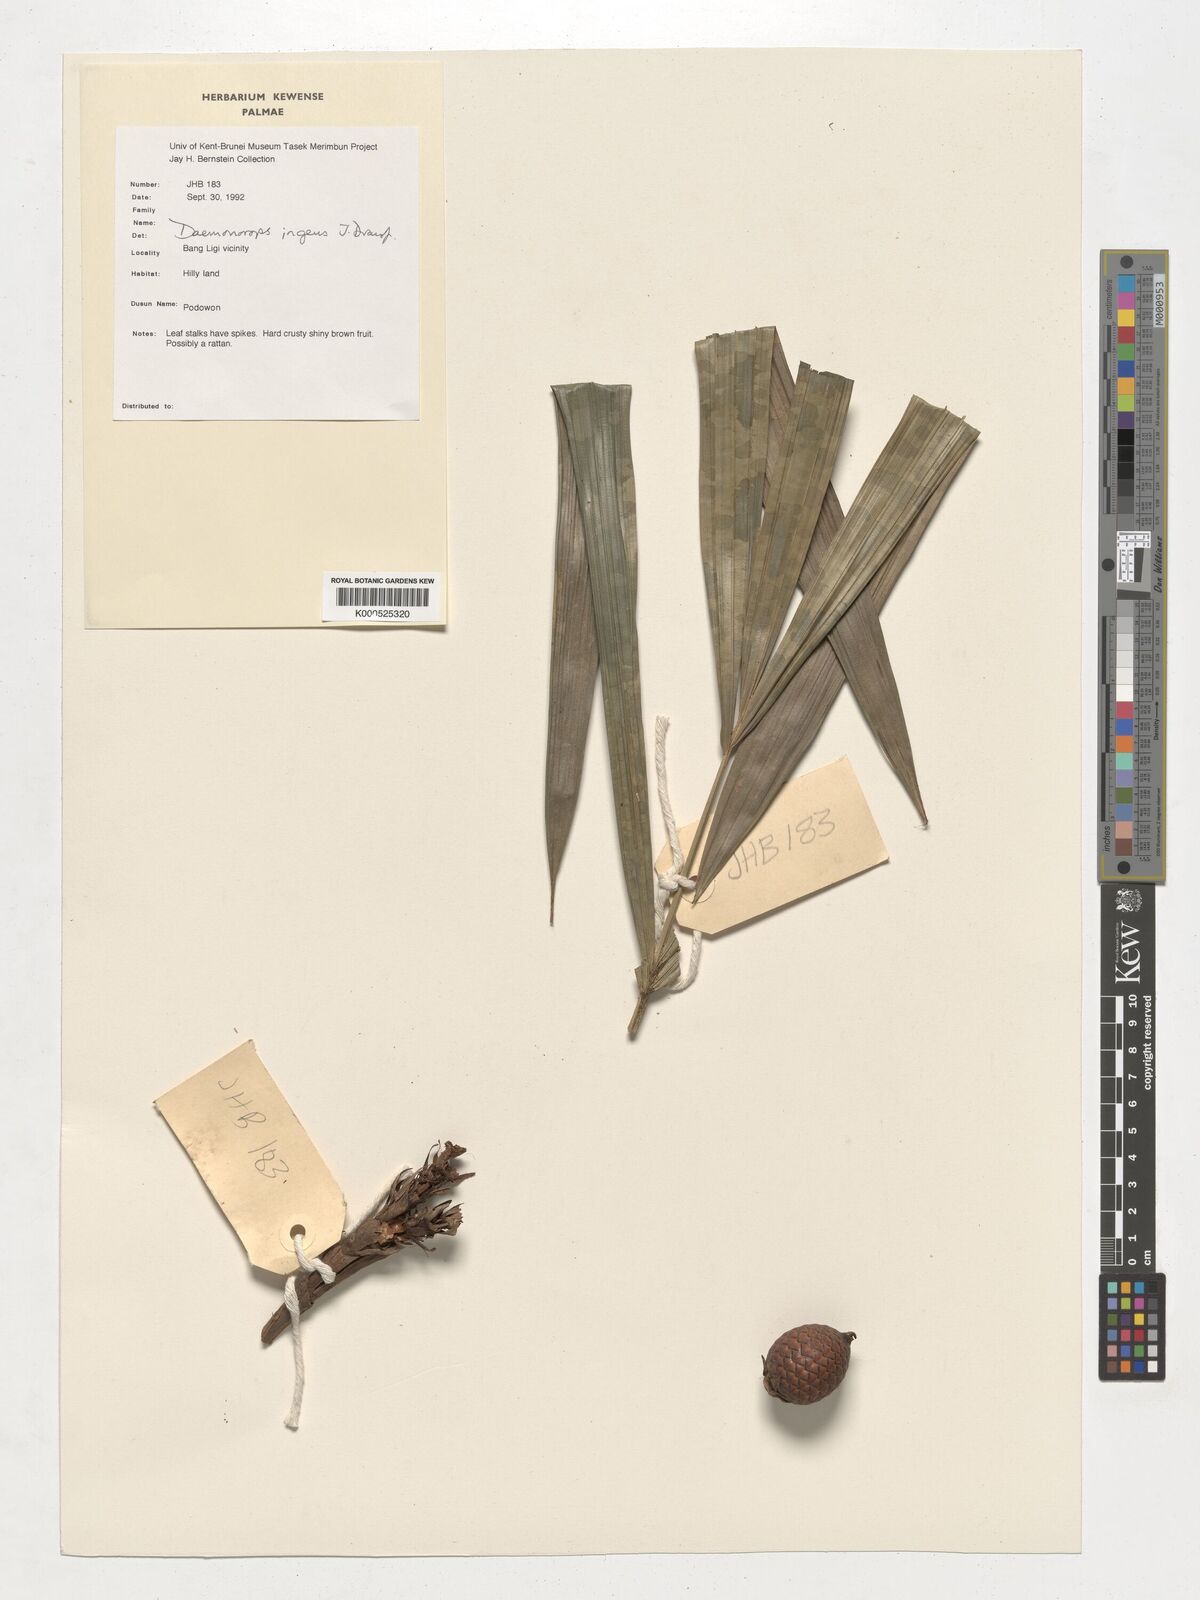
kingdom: Plantae
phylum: Tracheophyta
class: Liliopsida
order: Arecales
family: Arecaceae
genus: Calamus
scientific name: Calamus ingens
